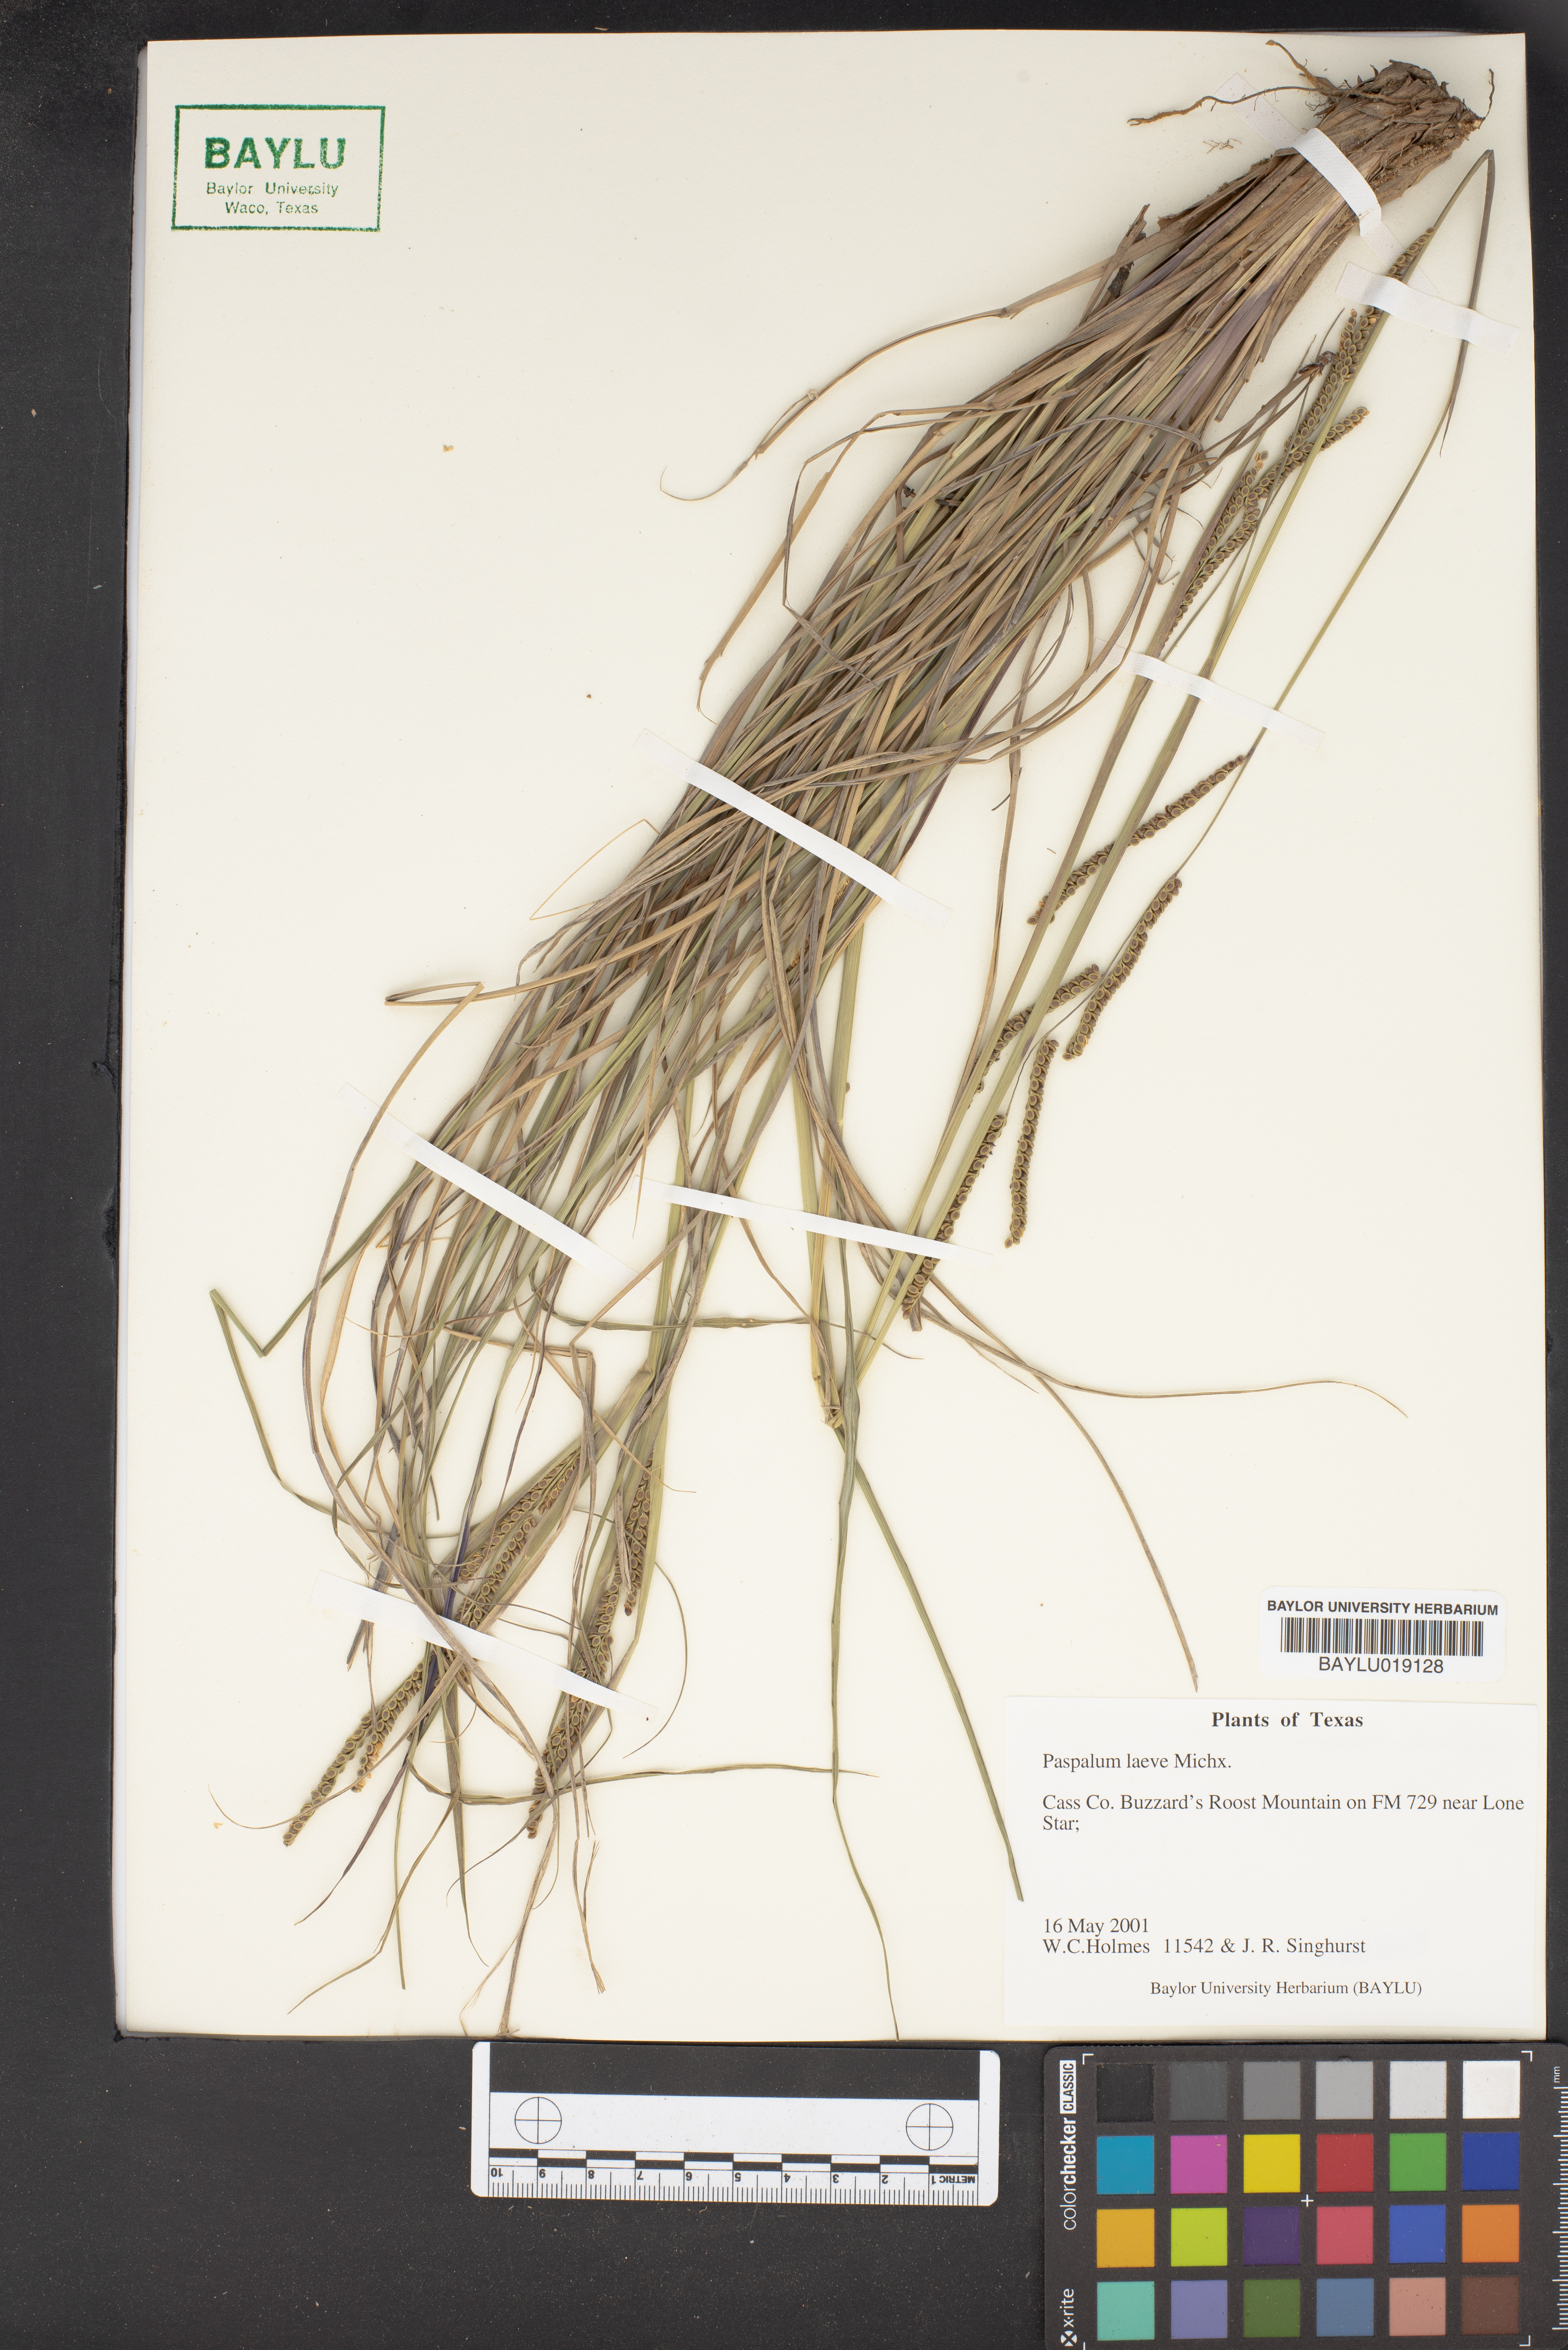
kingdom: Plantae
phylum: Tracheophyta
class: Liliopsida
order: Poales
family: Poaceae
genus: Paspalum
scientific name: Paspalum laeve
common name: Field paspalum
